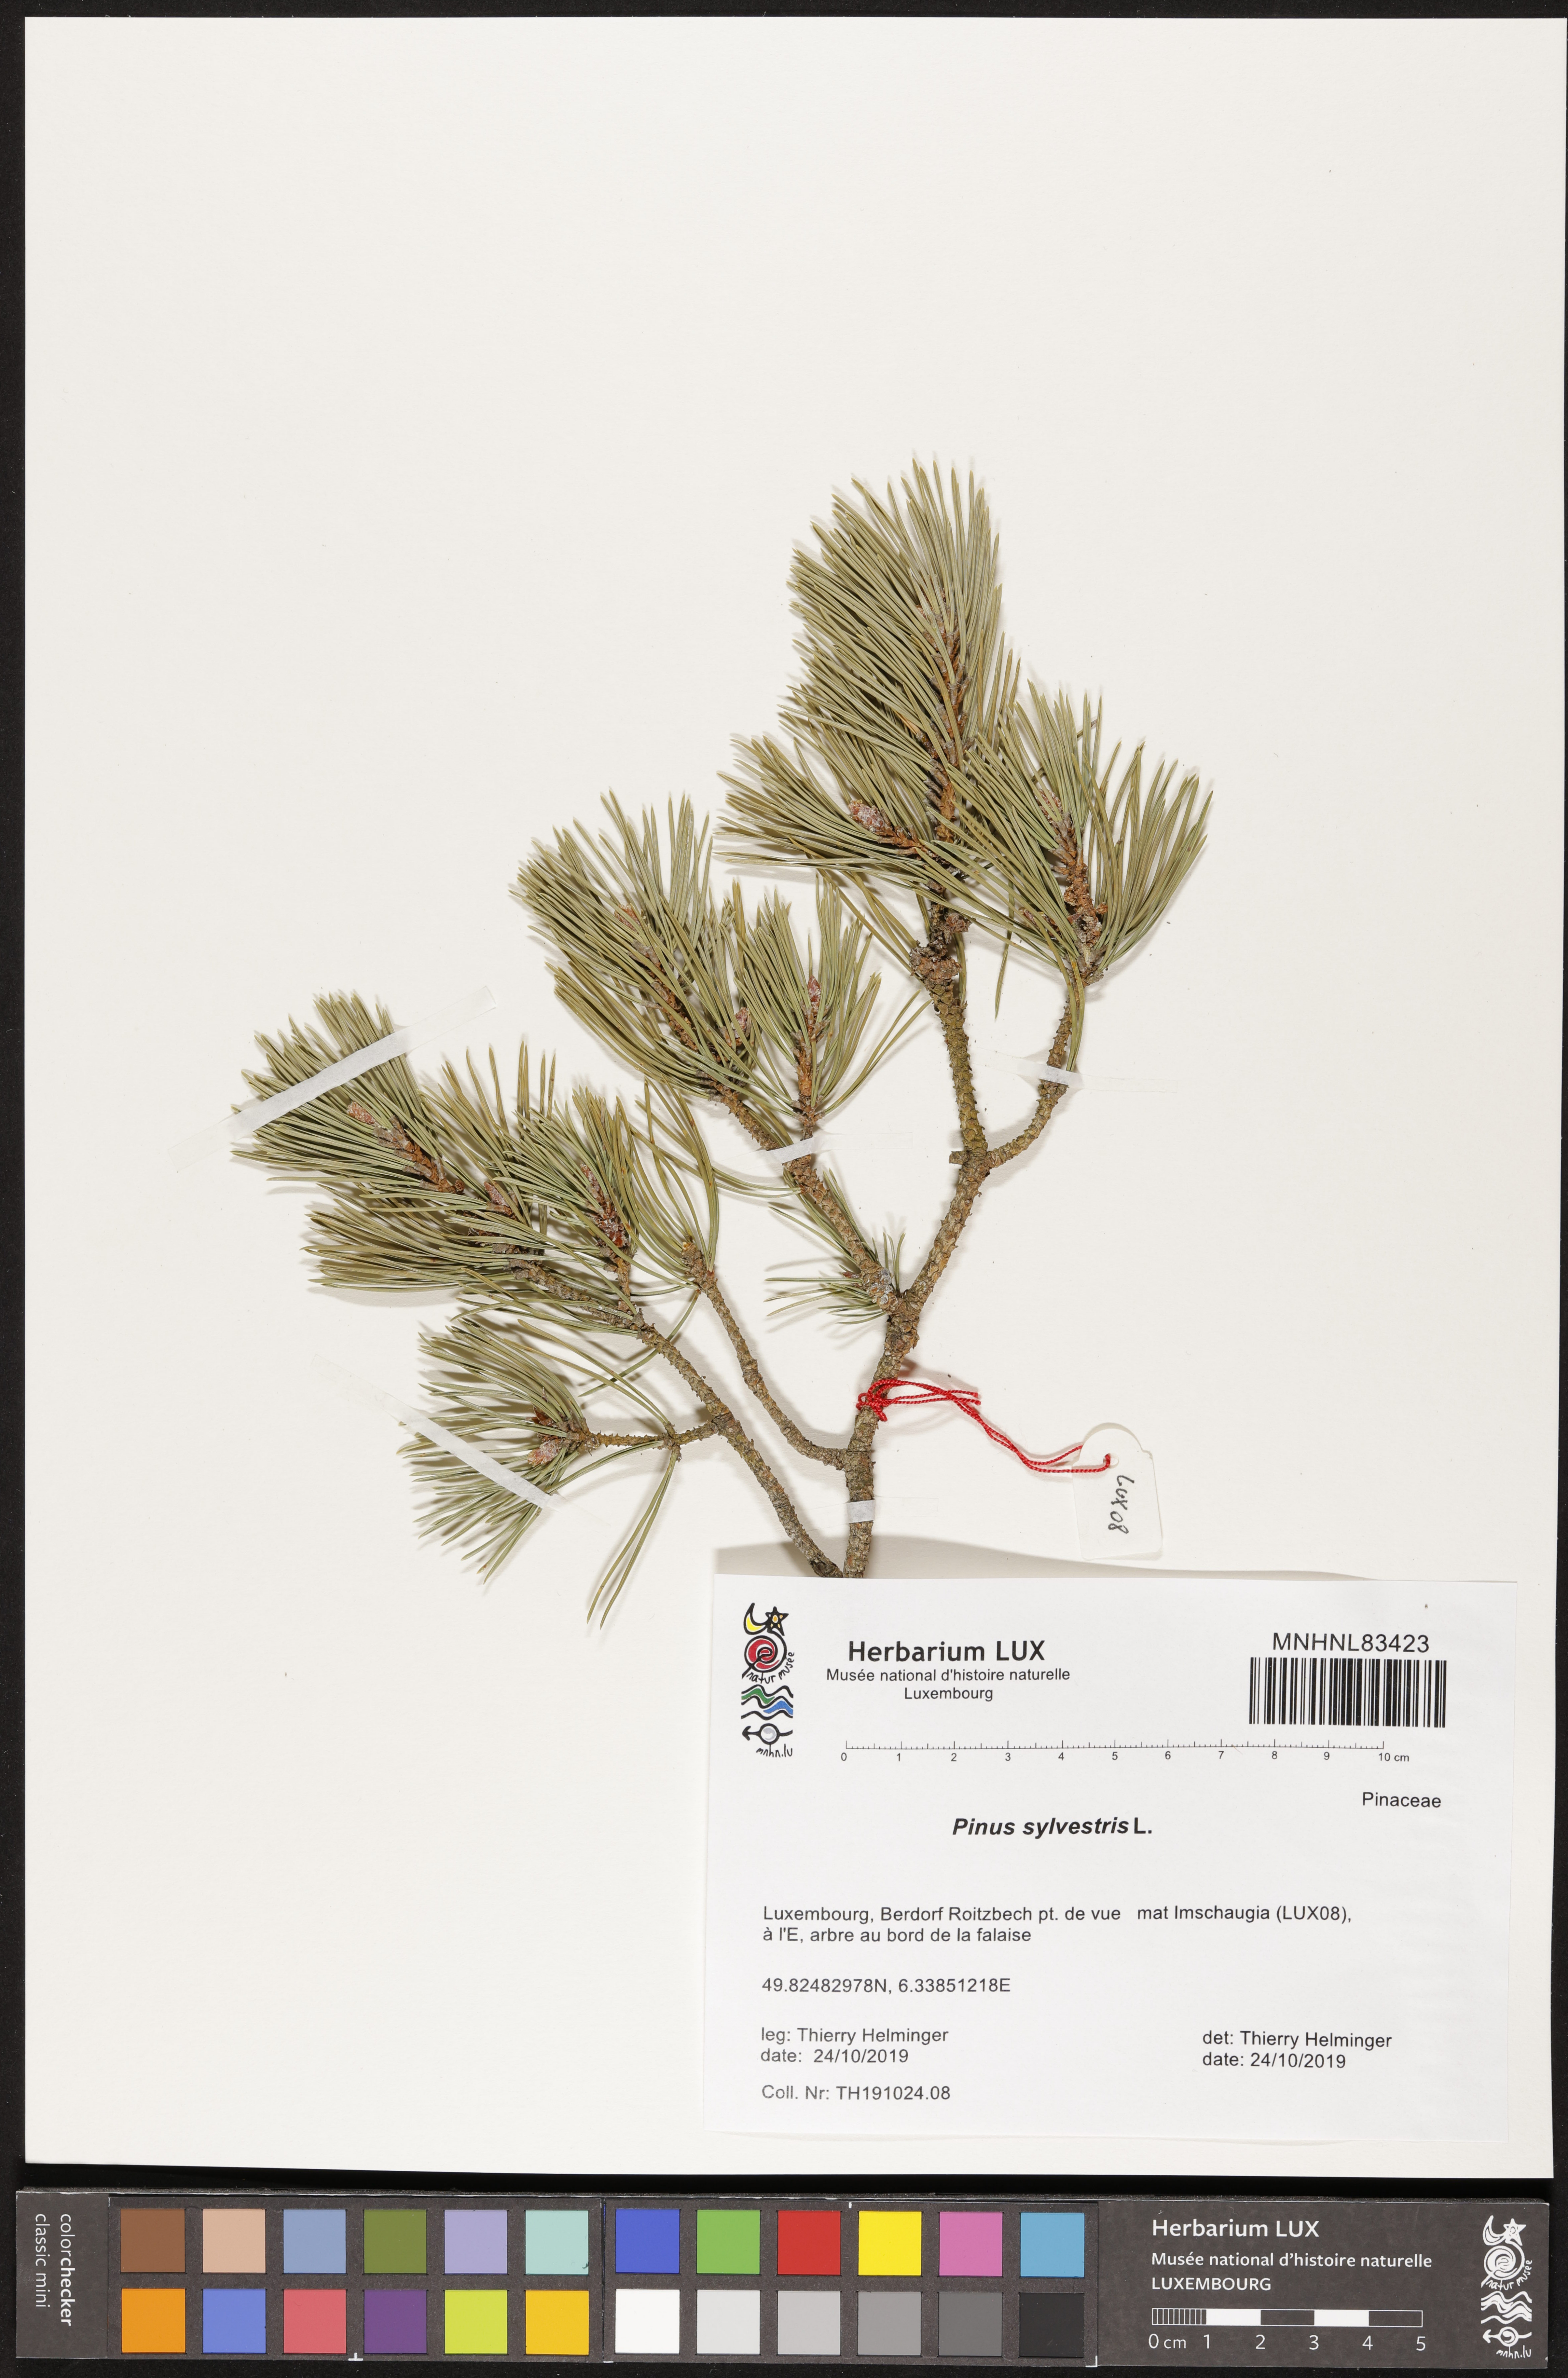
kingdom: Plantae
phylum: Tracheophyta
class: Pinopsida
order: Pinales
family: Pinaceae
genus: Pinus
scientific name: Pinus sylvestris
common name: Scots pine
